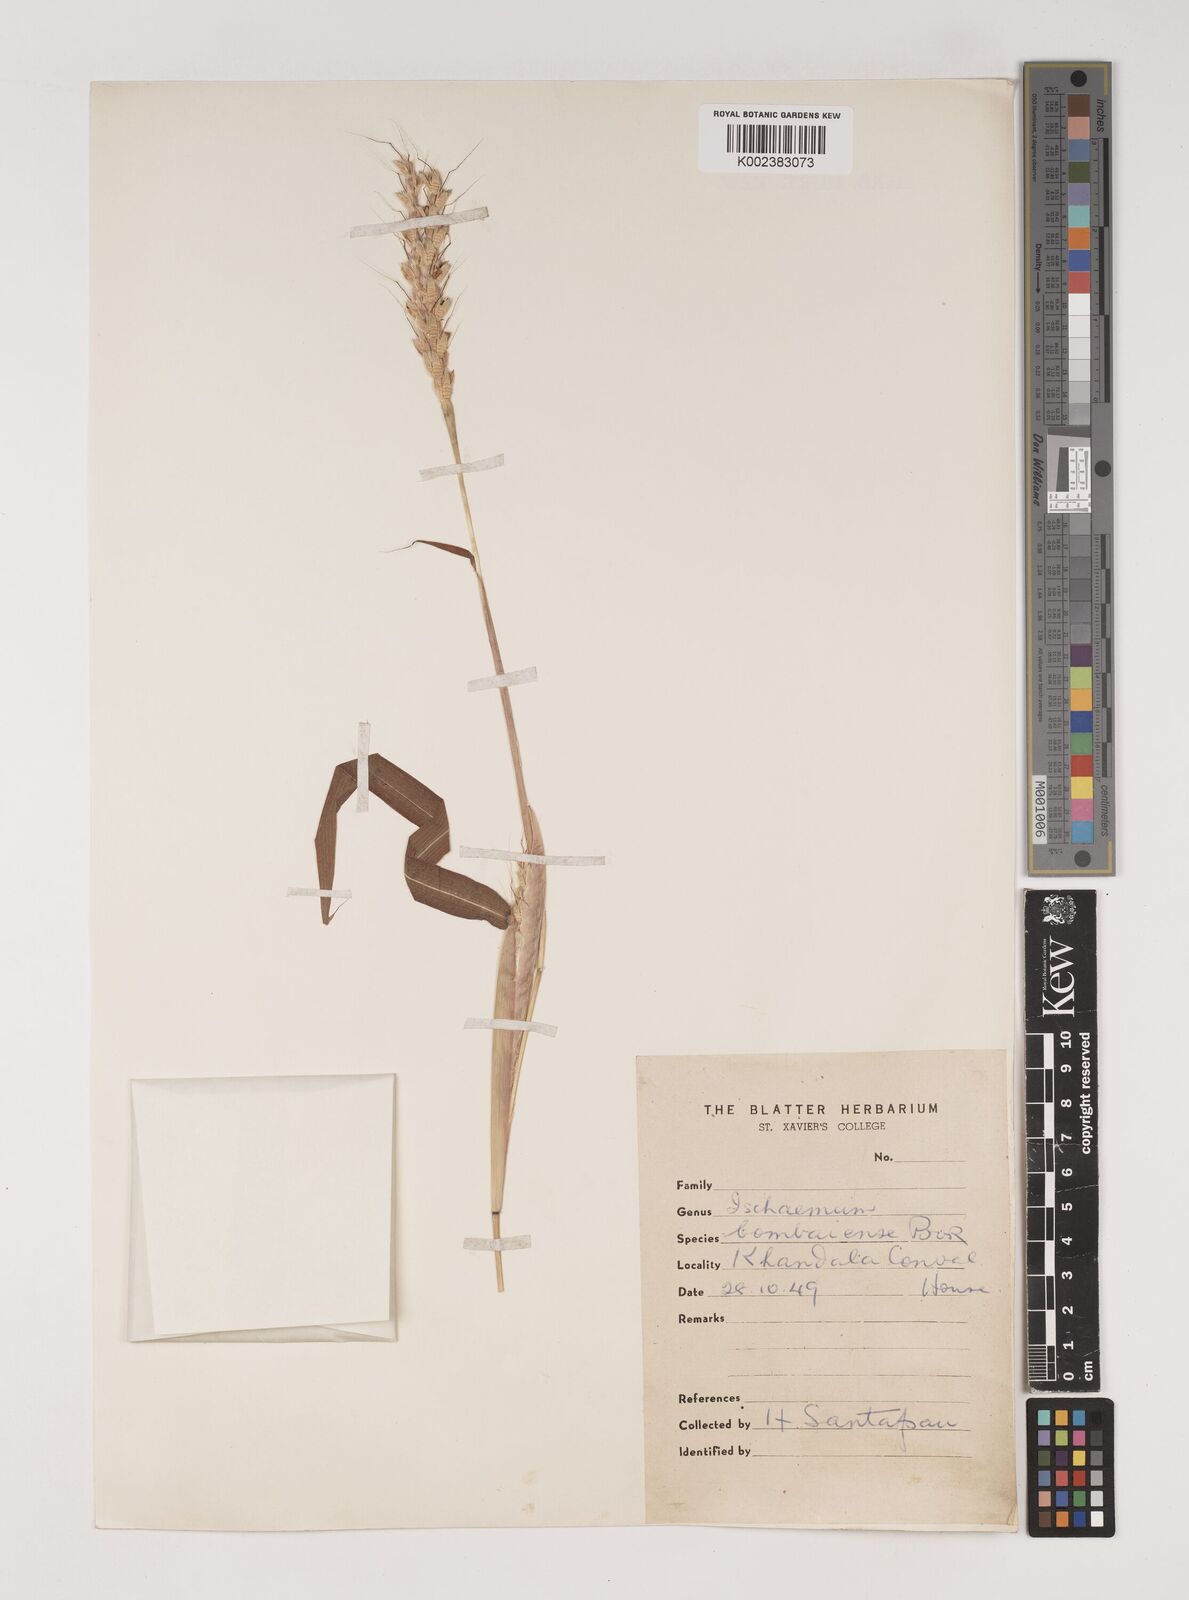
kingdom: Plantae
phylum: Tracheophyta
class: Liliopsida
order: Poales
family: Poaceae
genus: Ischaemum
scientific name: Ischaemum bombaiense
